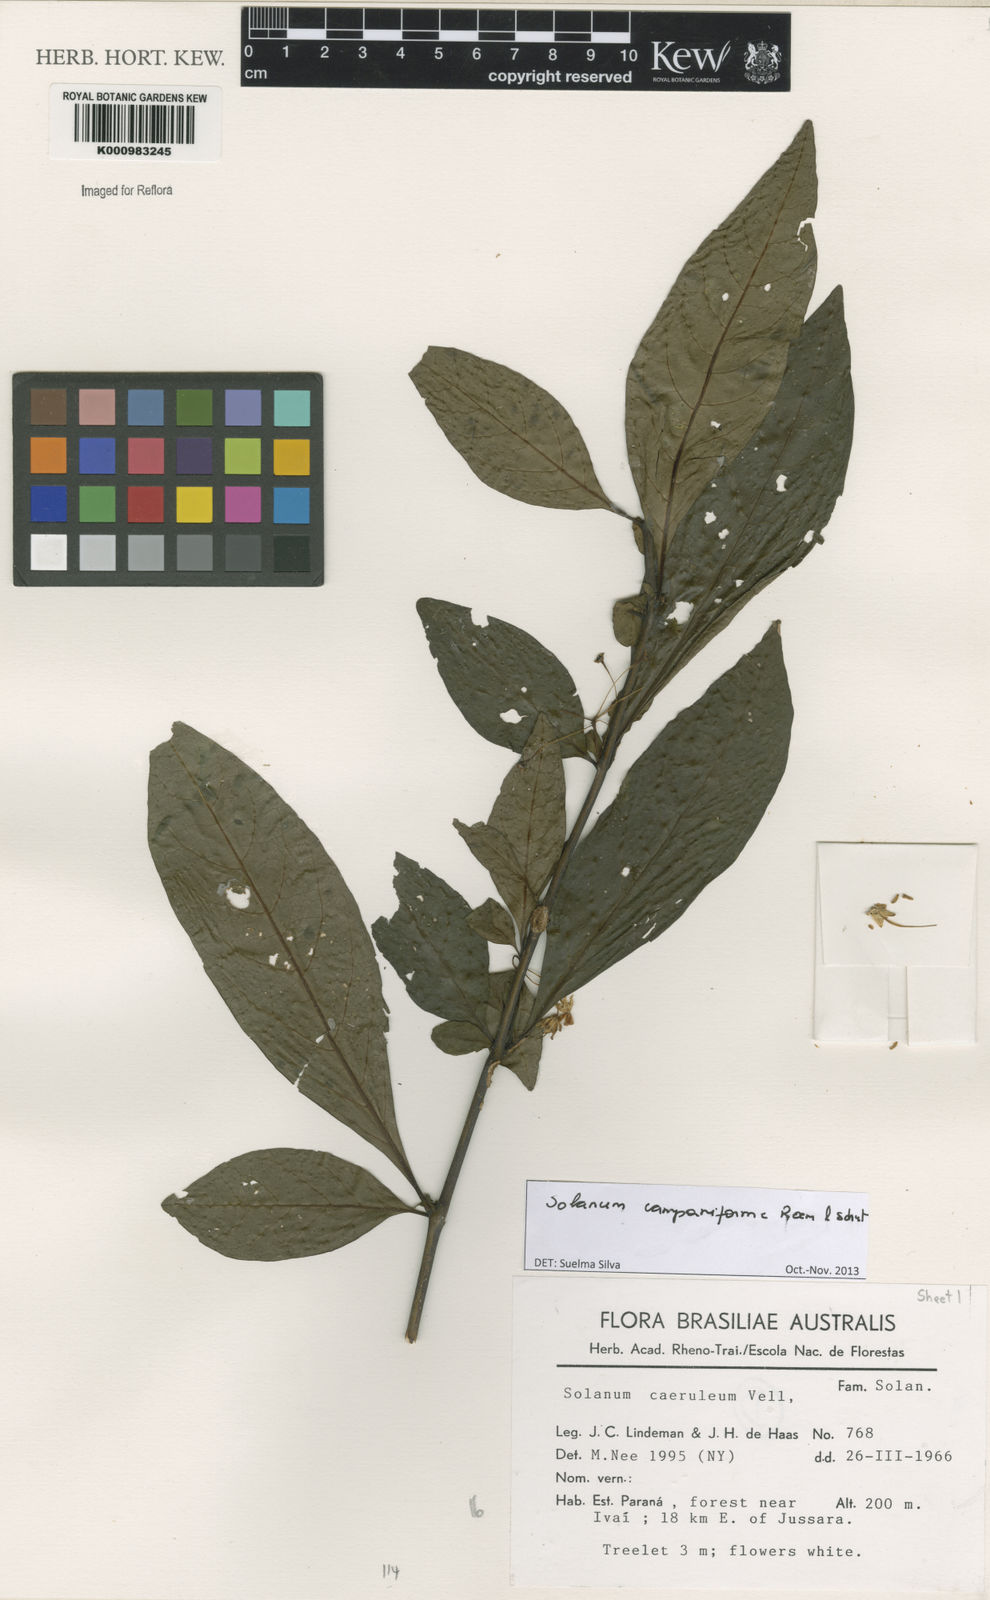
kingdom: Plantae
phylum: Tracheophyta
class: Magnoliopsida
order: Solanales
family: Solanaceae
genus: Solanum
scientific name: Solanum campaniforme
